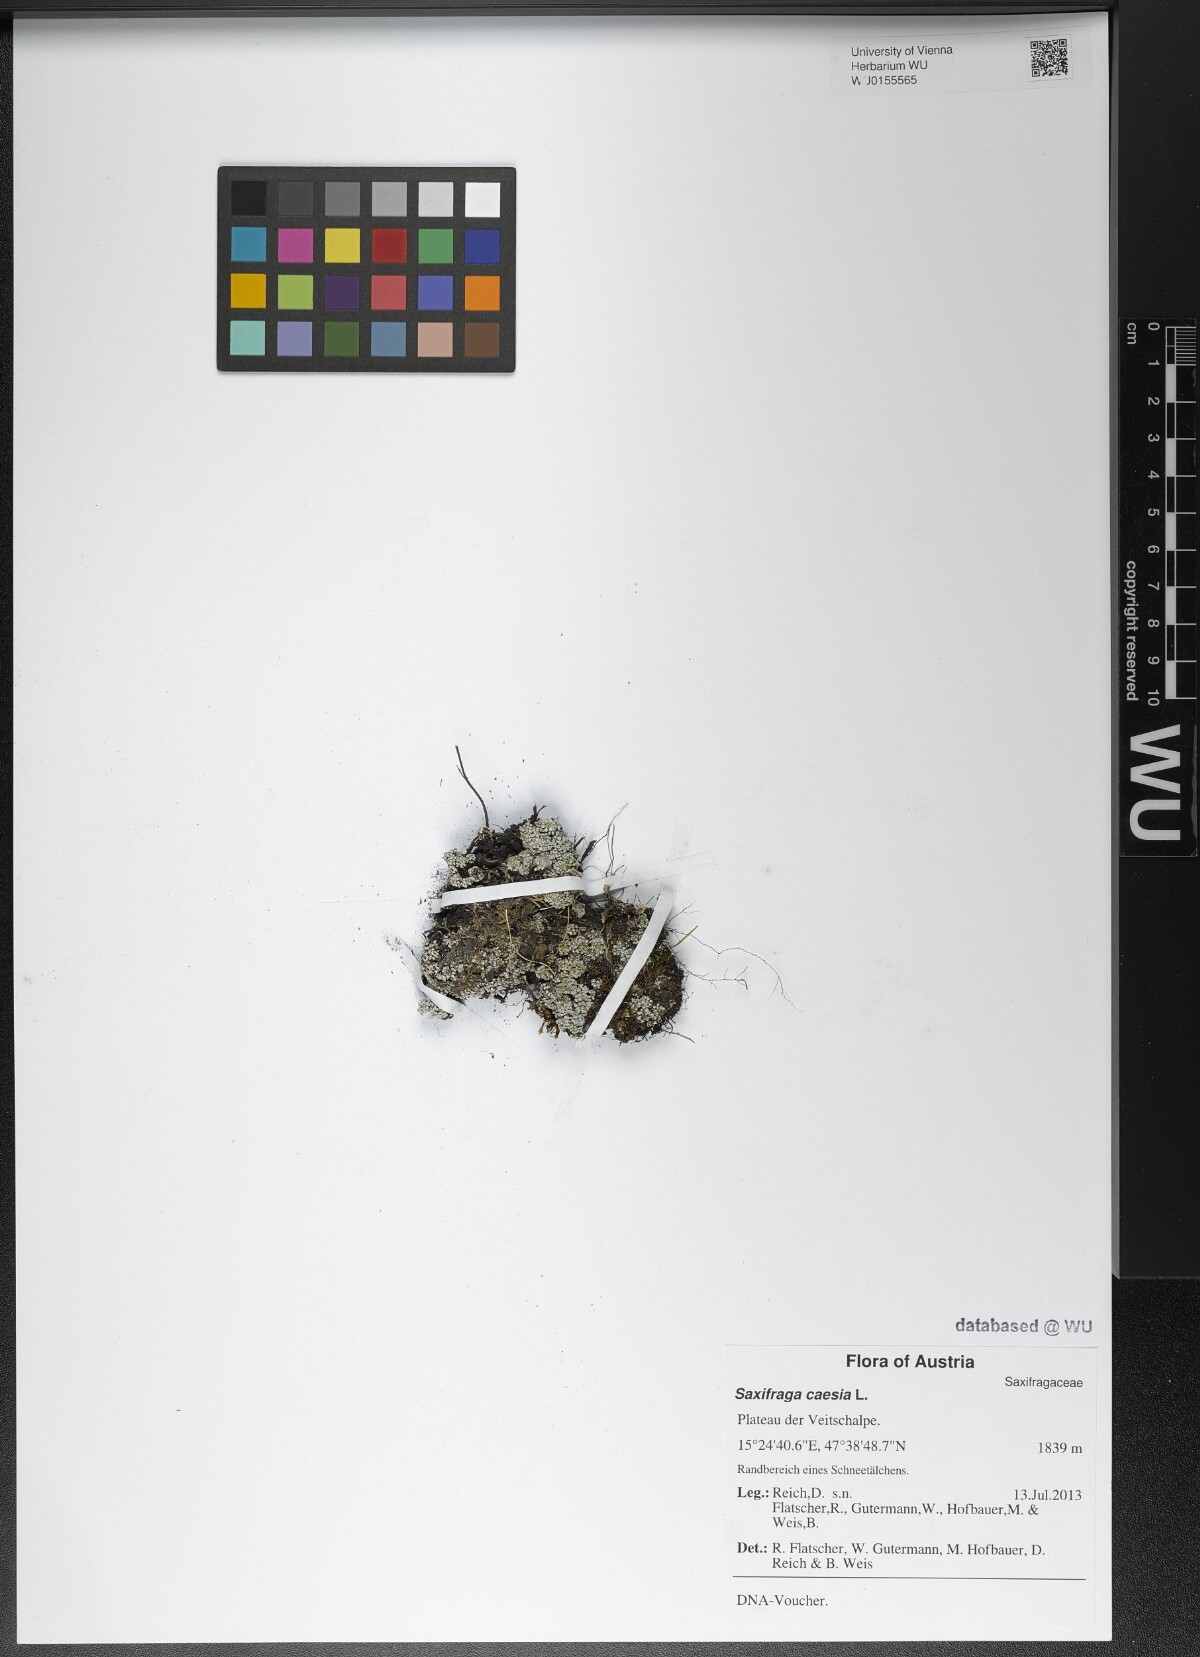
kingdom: Plantae
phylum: Tracheophyta
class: Magnoliopsida
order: Saxifragales
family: Saxifragaceae
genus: Saxifraga
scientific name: Saxifraga caesia
